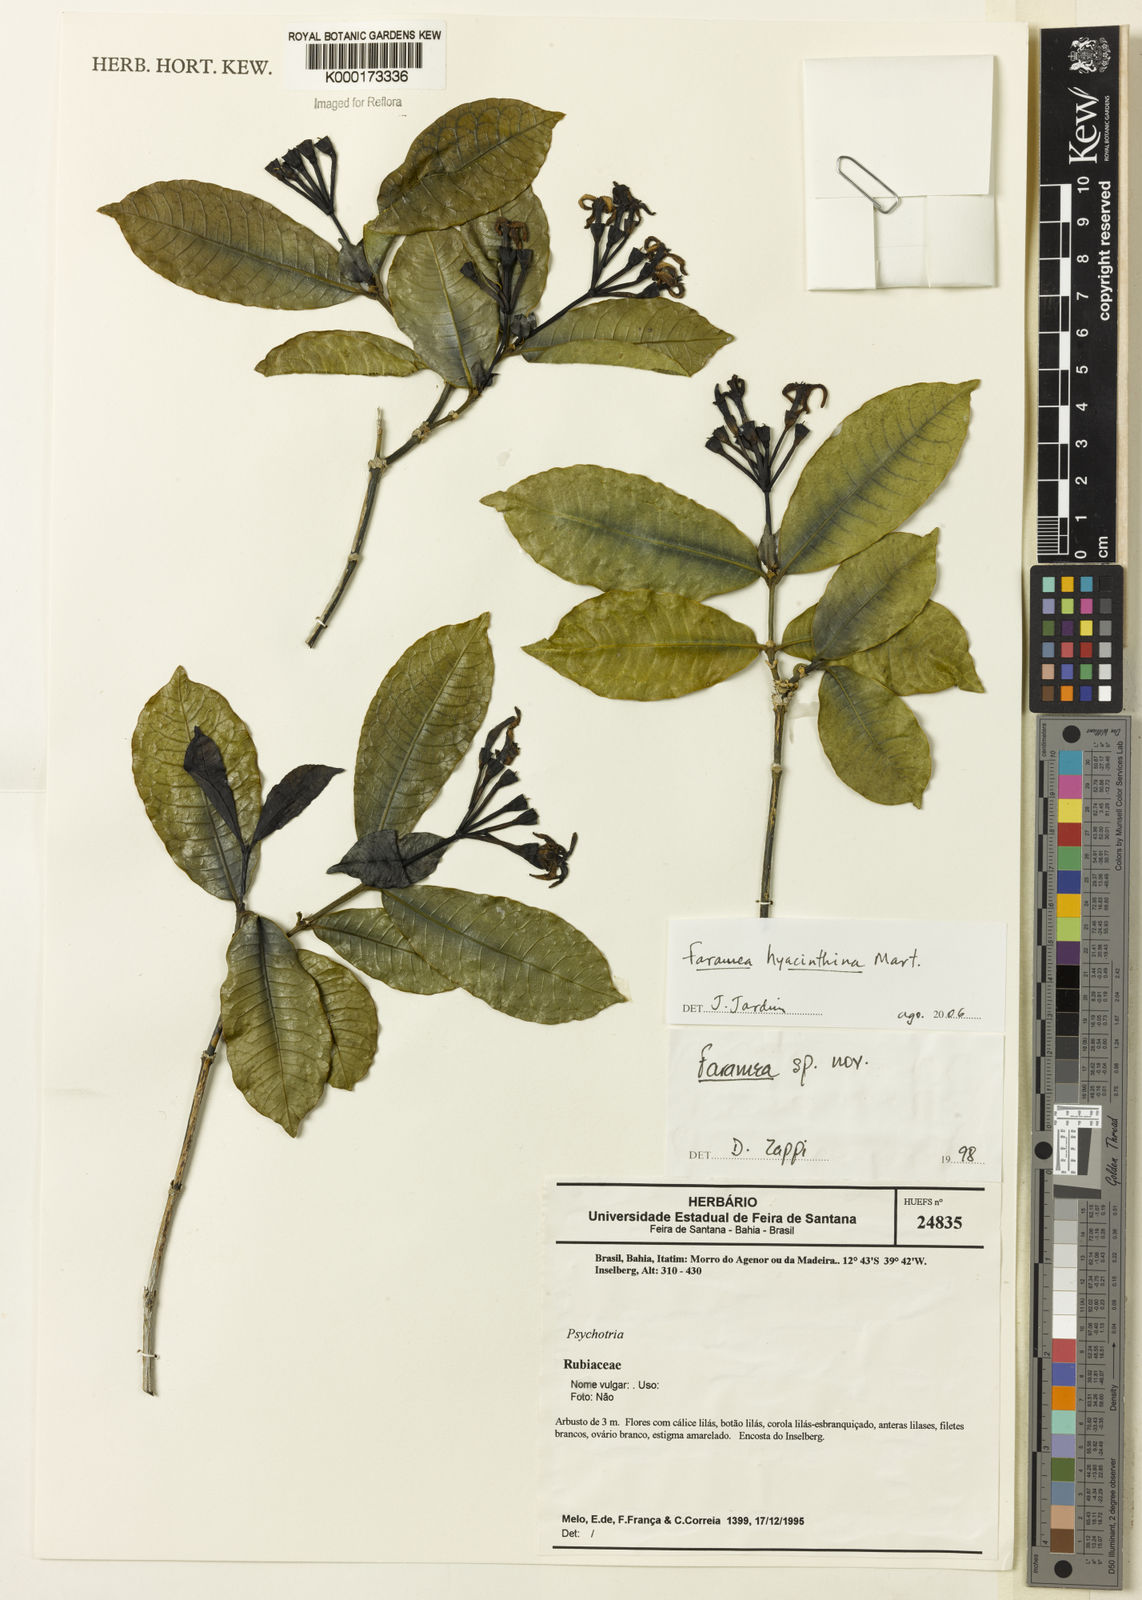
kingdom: Plantae
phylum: Tracheophyta
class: Magnoliopsida
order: Gentianales
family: Rubiaceae
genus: Faramea
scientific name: Faramea hyacinthina
